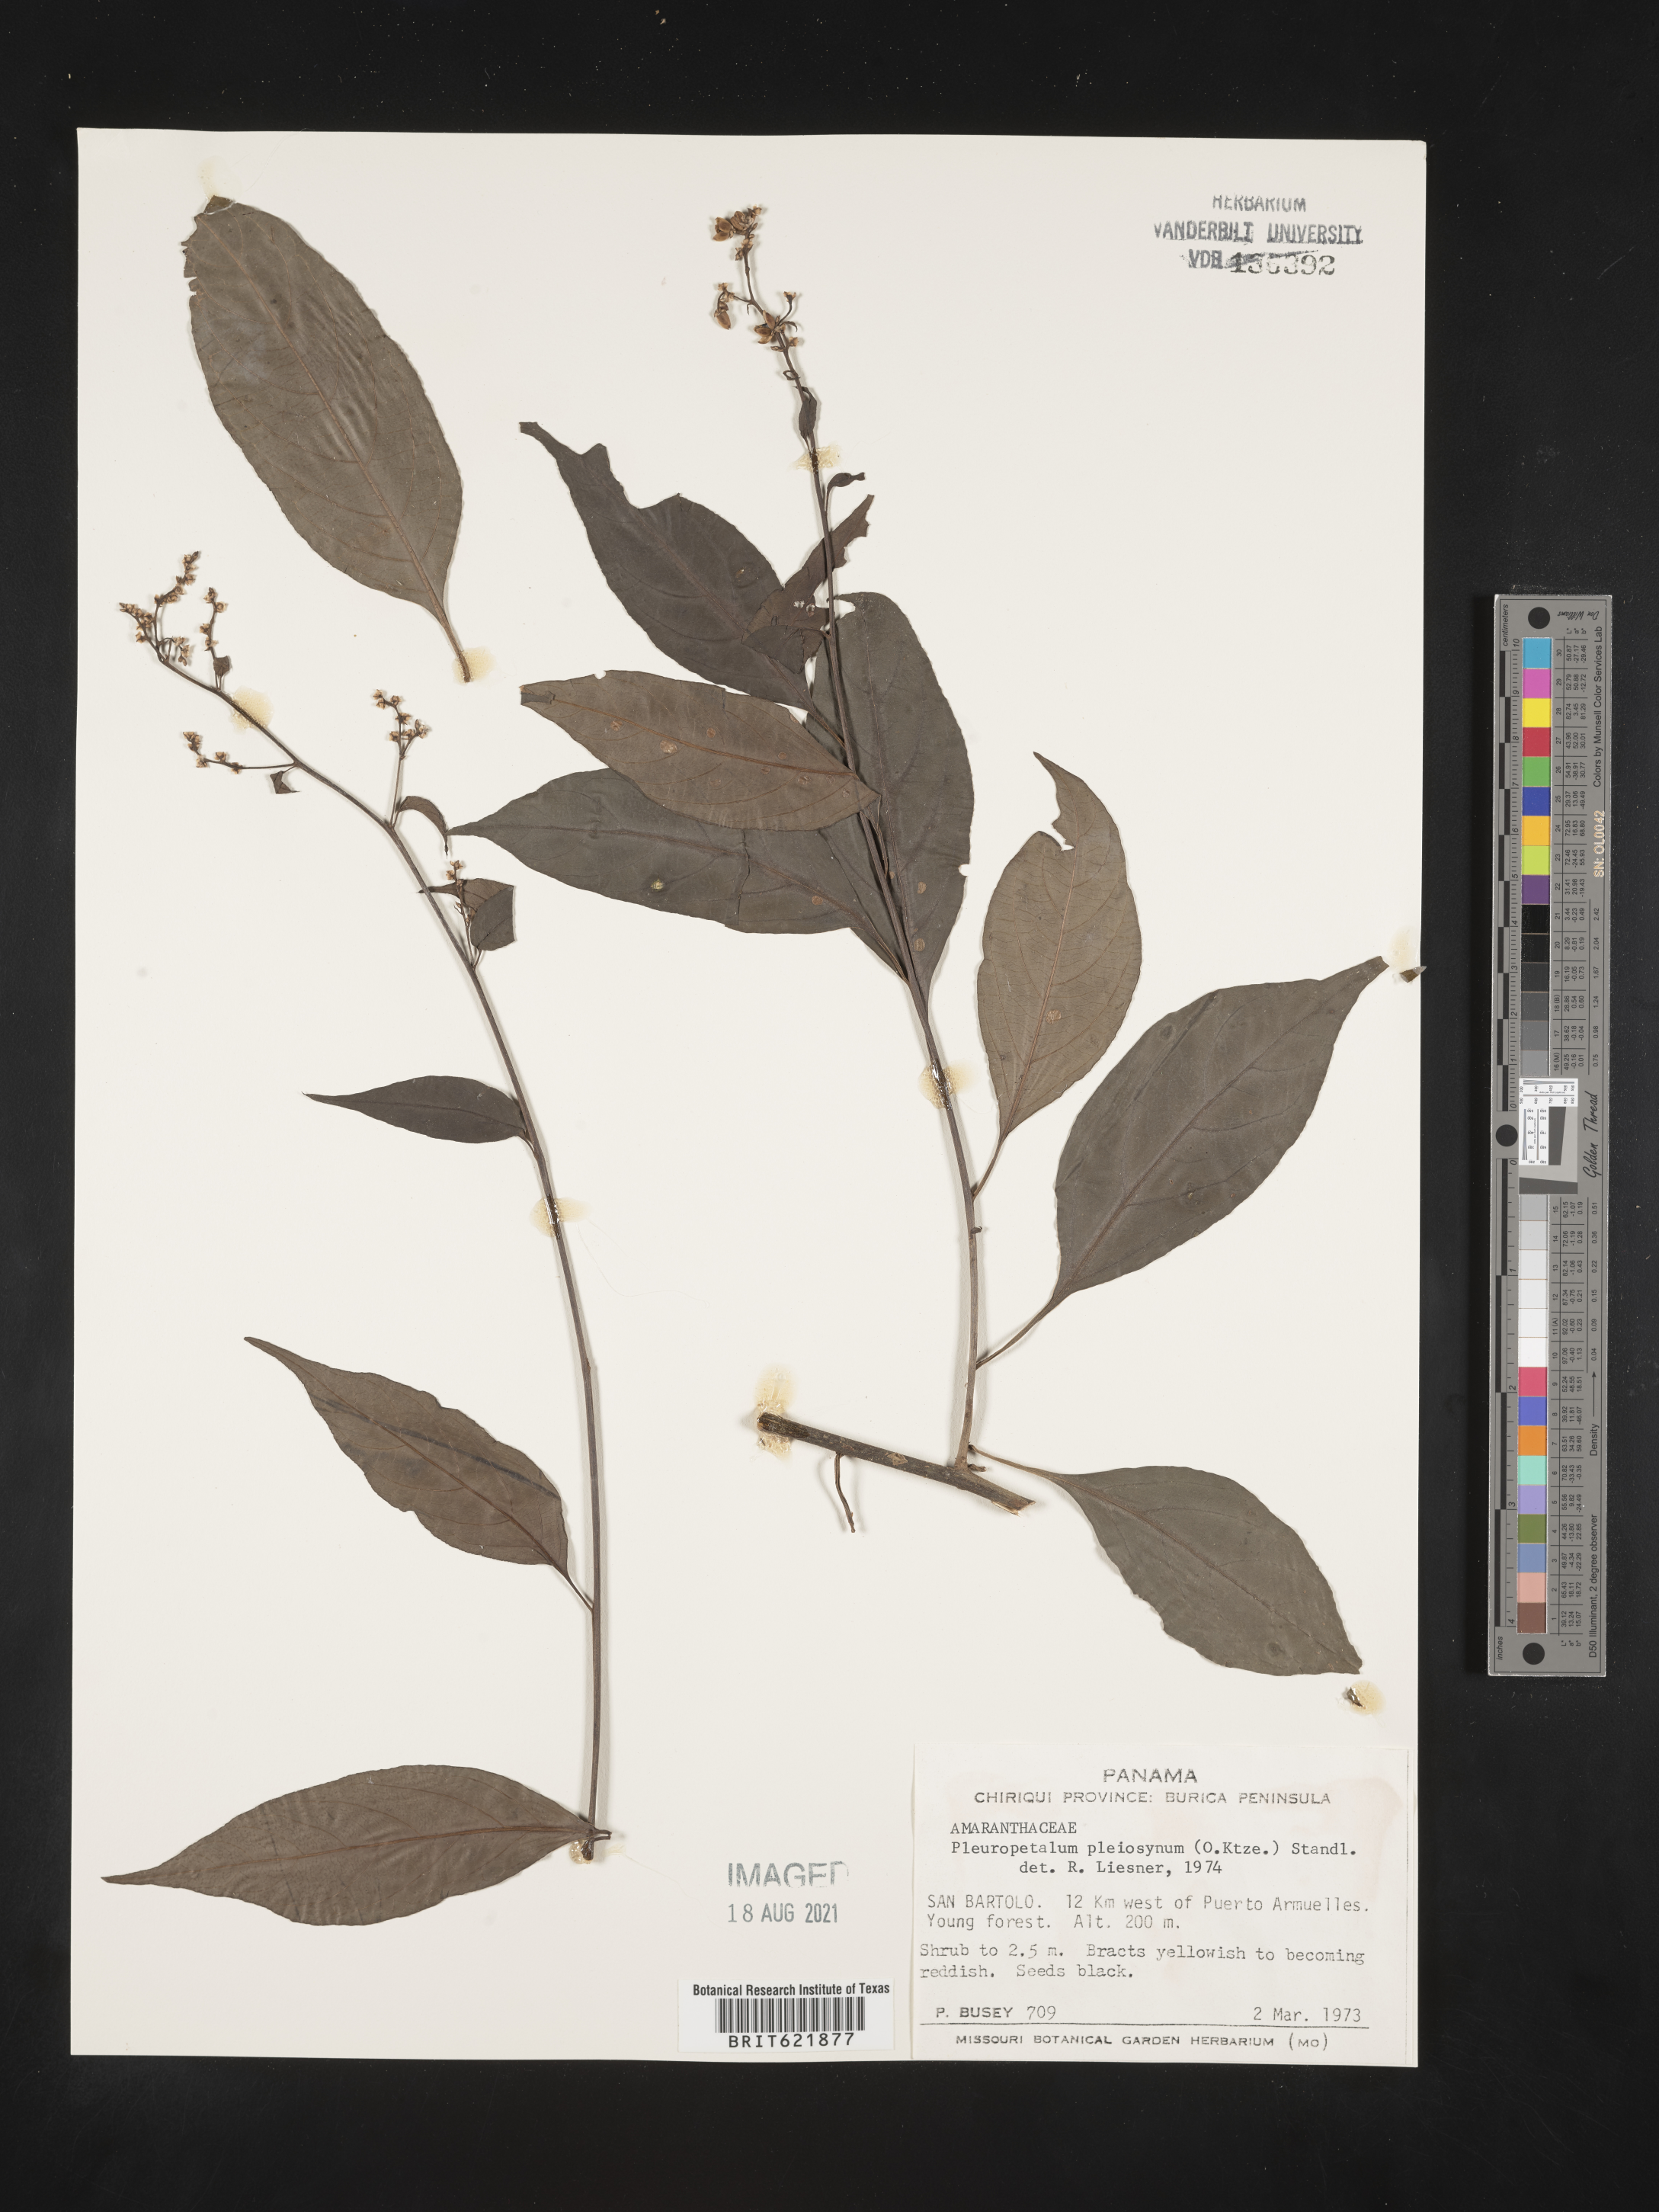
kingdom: Plantae
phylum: Tracheophyta
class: Magnoliopsida
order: Caryophyllales
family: Amaranthaceae
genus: Pleuropetalum
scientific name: Pleuropetalum pleiogynum
